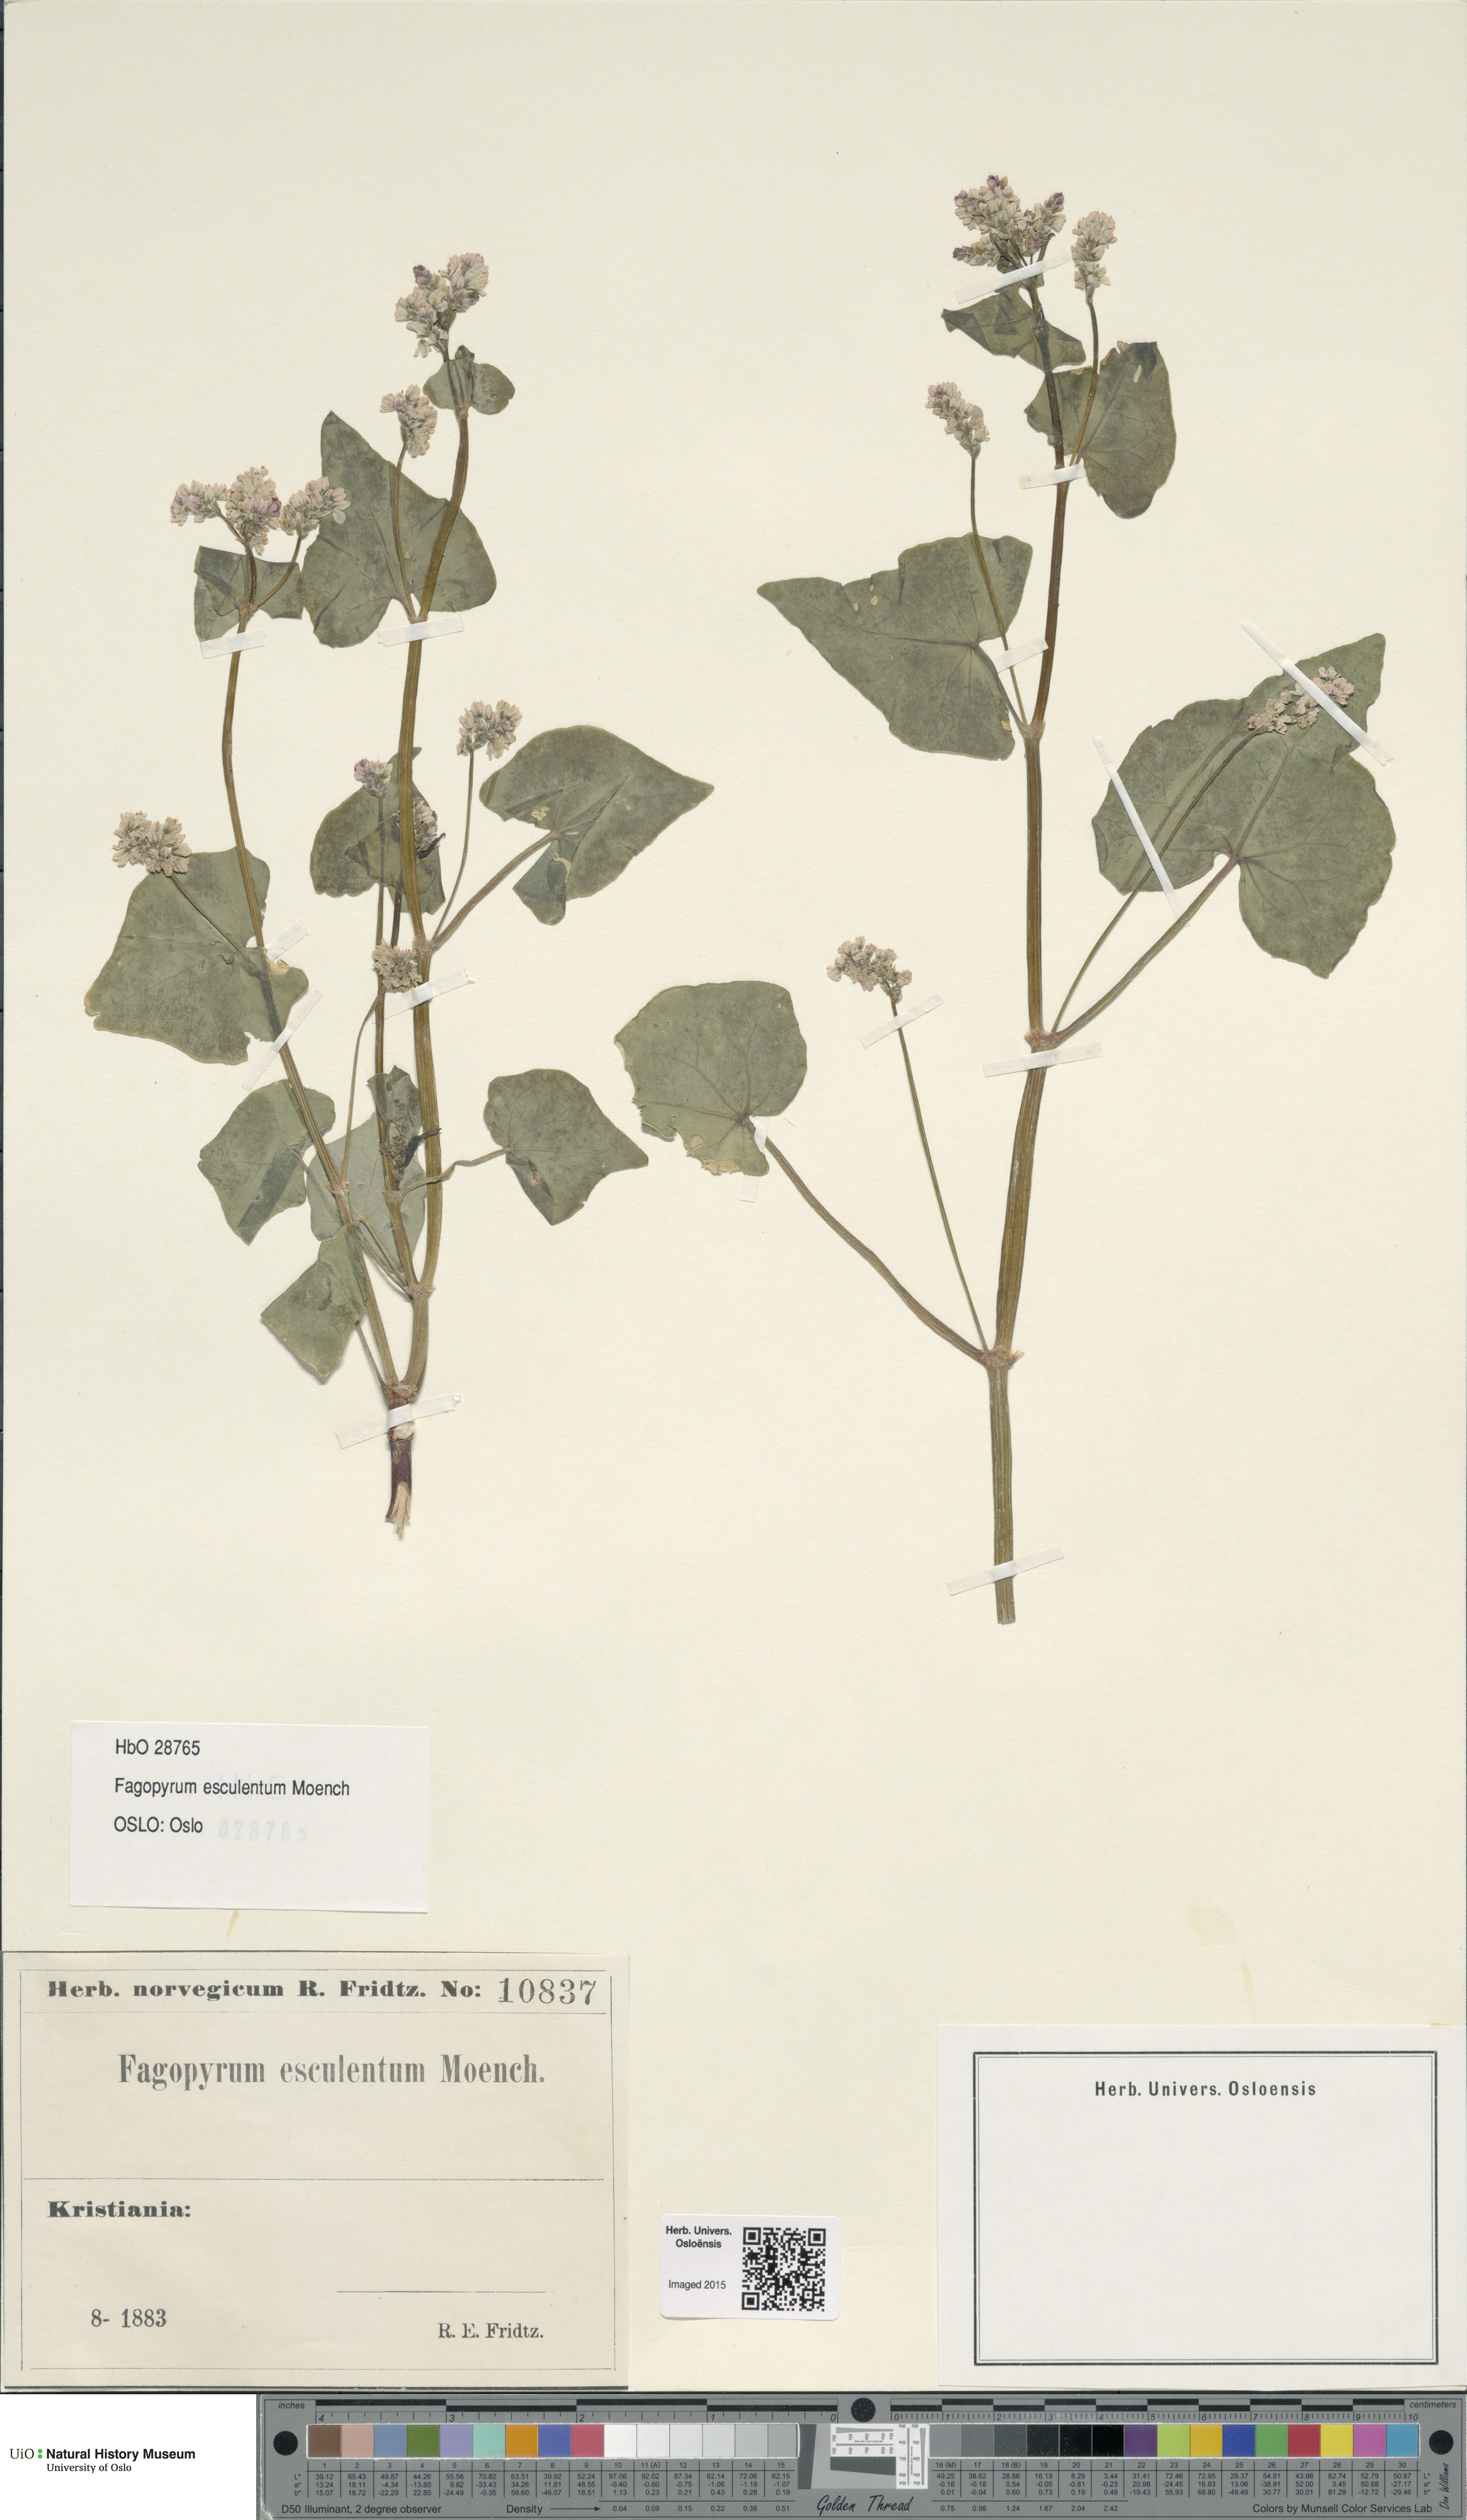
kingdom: Plantae
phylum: Tracheophyta
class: Magnoliopsida
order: Caryophyllales
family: Polygonaceae
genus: Fagopyrum
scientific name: Fagopyrum esculentum
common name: Buckwheat
